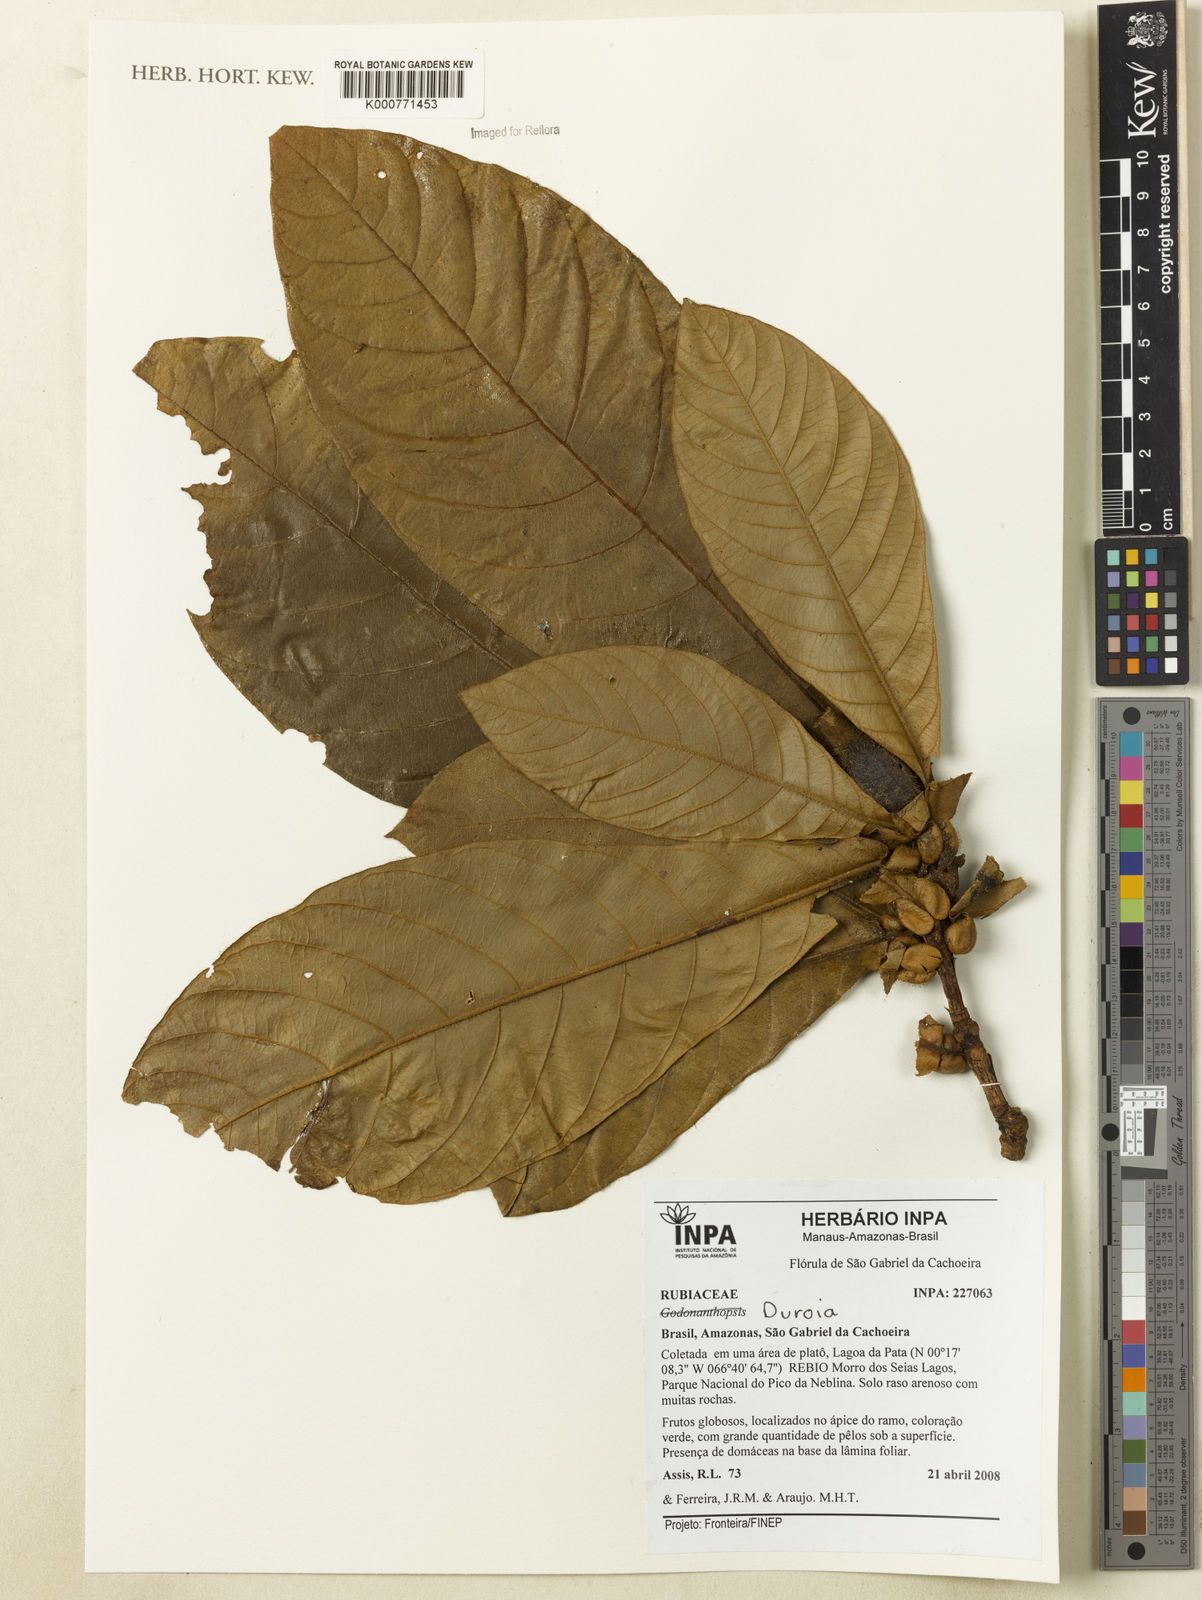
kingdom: Plantae
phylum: Tracheophyta
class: Magnoliopsida
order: Gentianales
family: Rubiaceae
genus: Duroia
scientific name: Duroia
